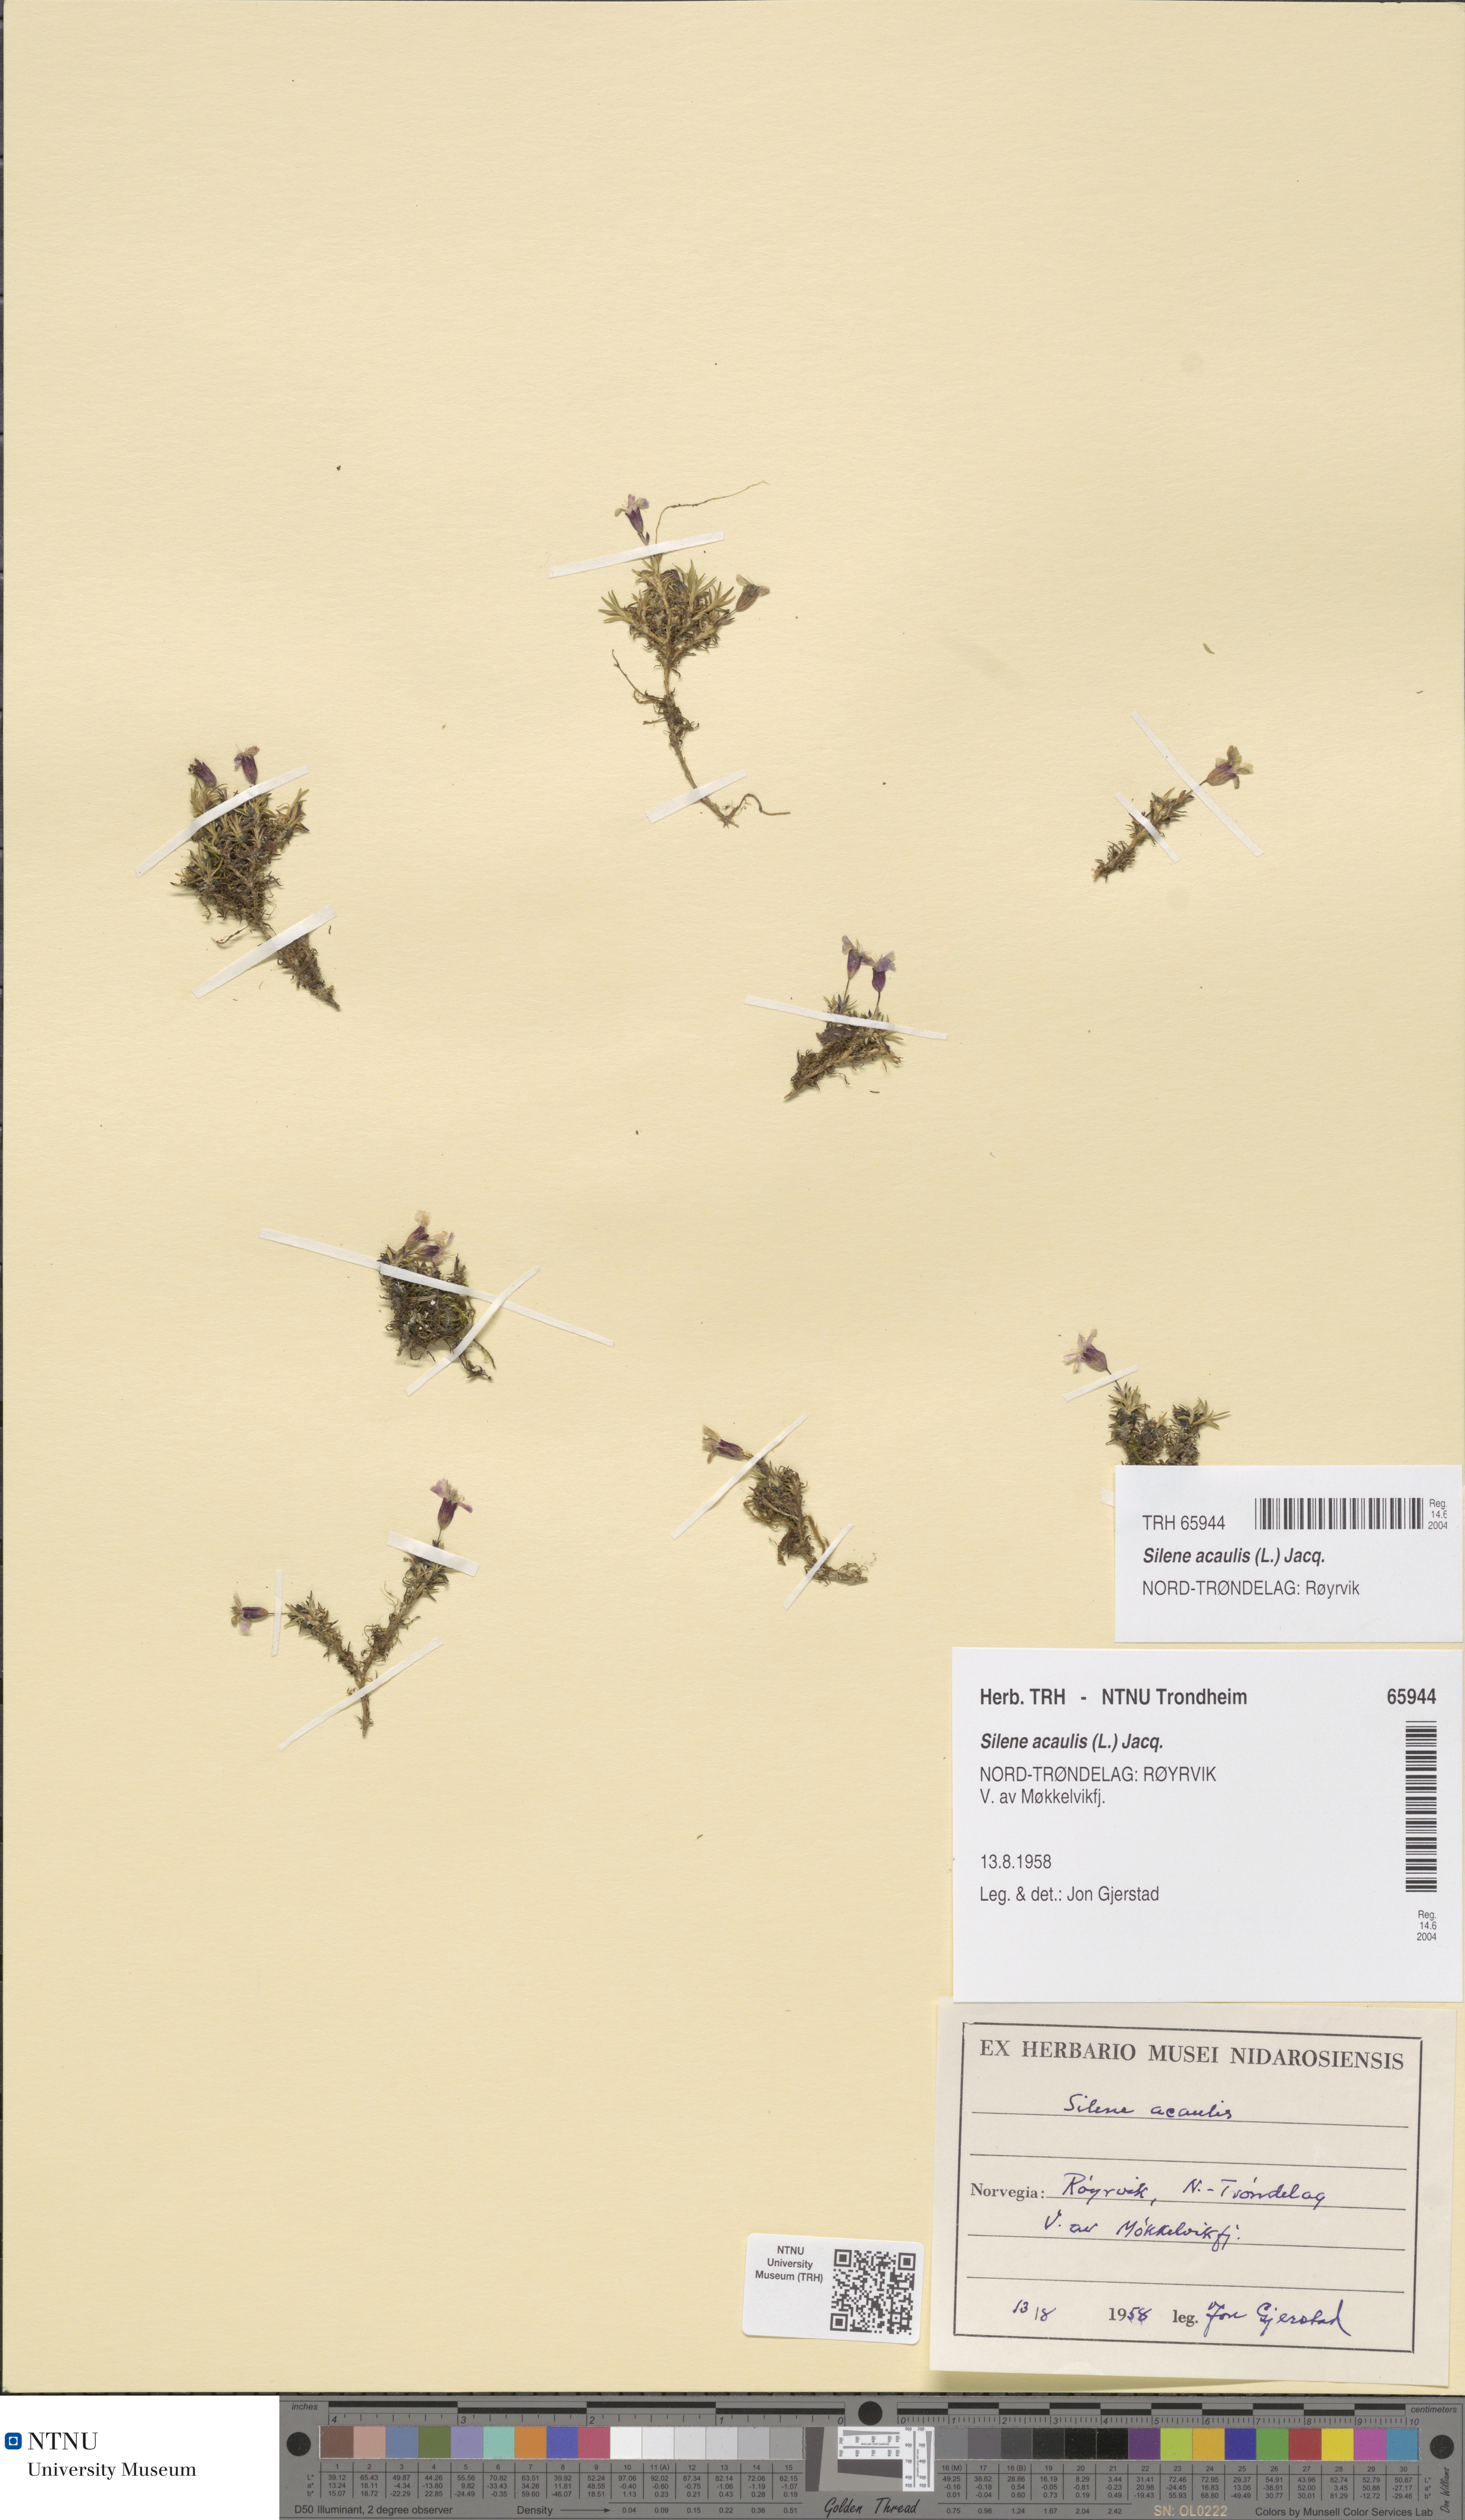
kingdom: Plantae
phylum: Tracheophyta
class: Magnoliopsida
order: Caryophyllales
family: Caryophyllaceae
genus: Silene
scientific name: Silene acaulis
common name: Moss campion
